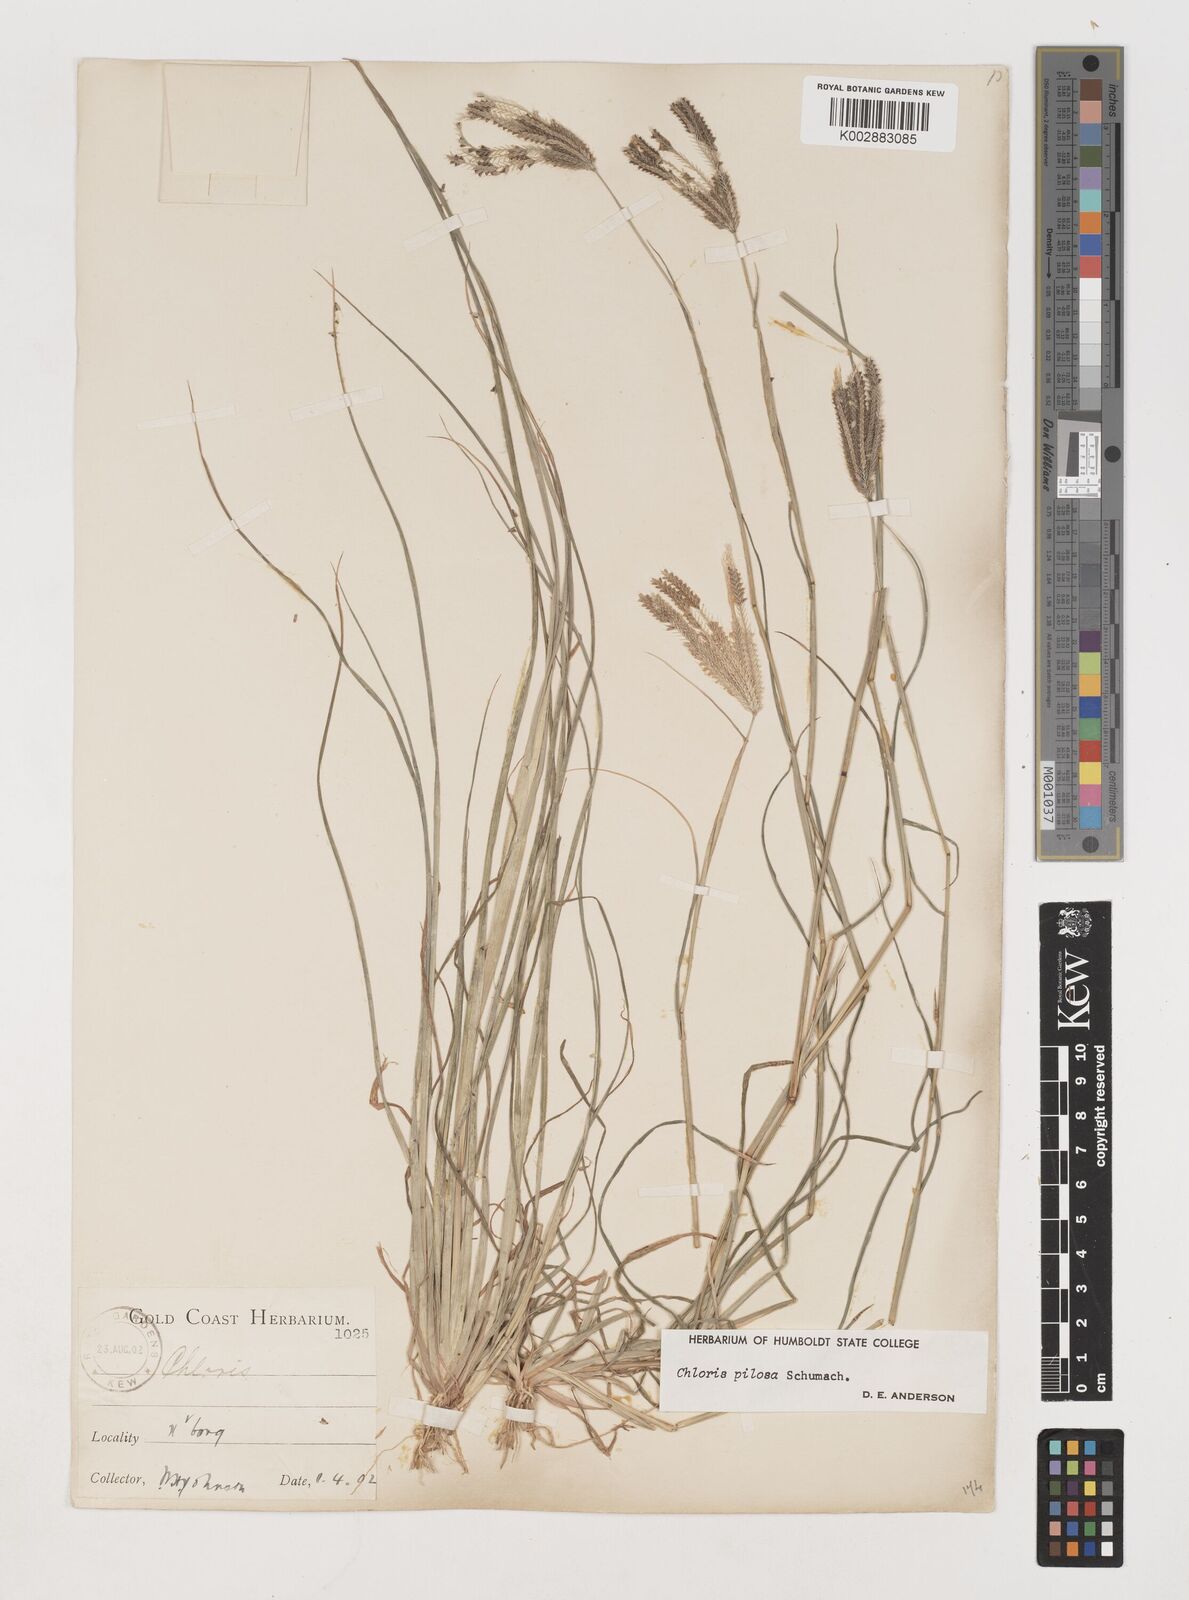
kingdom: Plantae
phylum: Tracheophyta
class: Liliopsida
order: Poales
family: Poaceae
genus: Chloris
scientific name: Chloris pilosa
